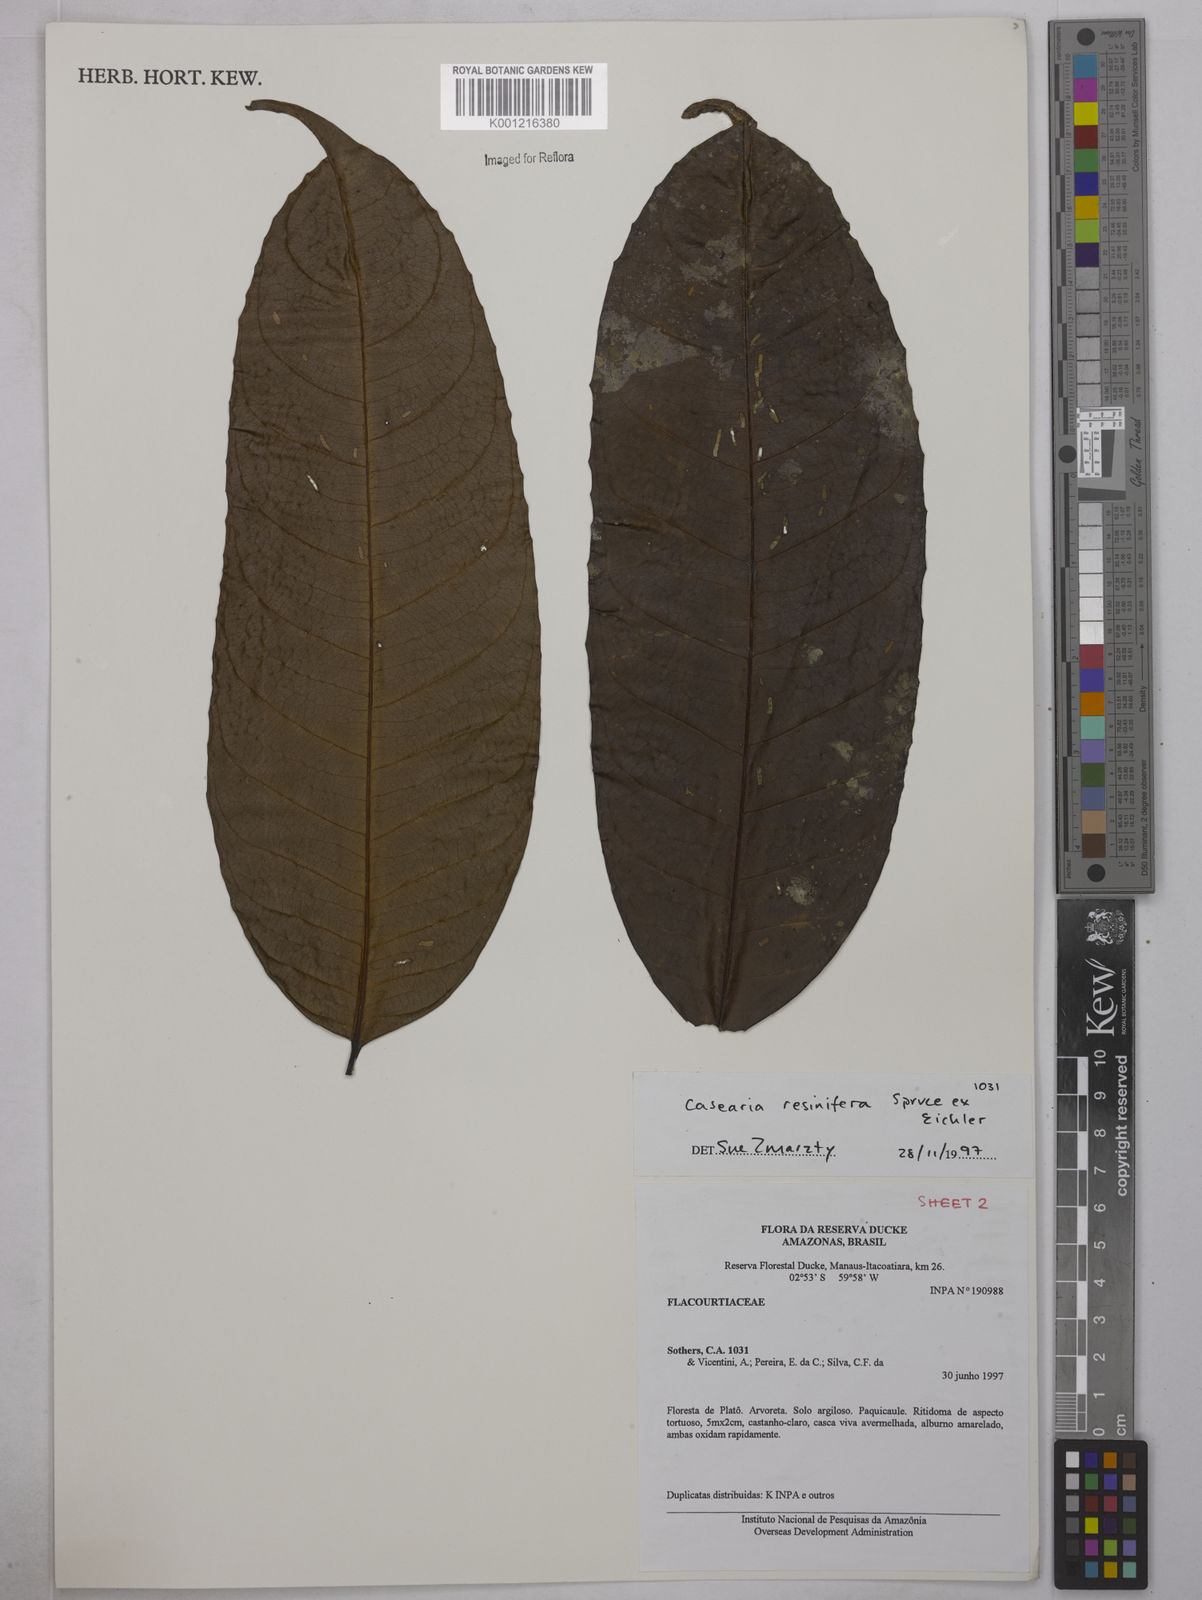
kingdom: Plantae
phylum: Tracheophyta
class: Magnoliopsida
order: Malpighiales
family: Salicaceae
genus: Casearia
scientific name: Casearia resinifera
